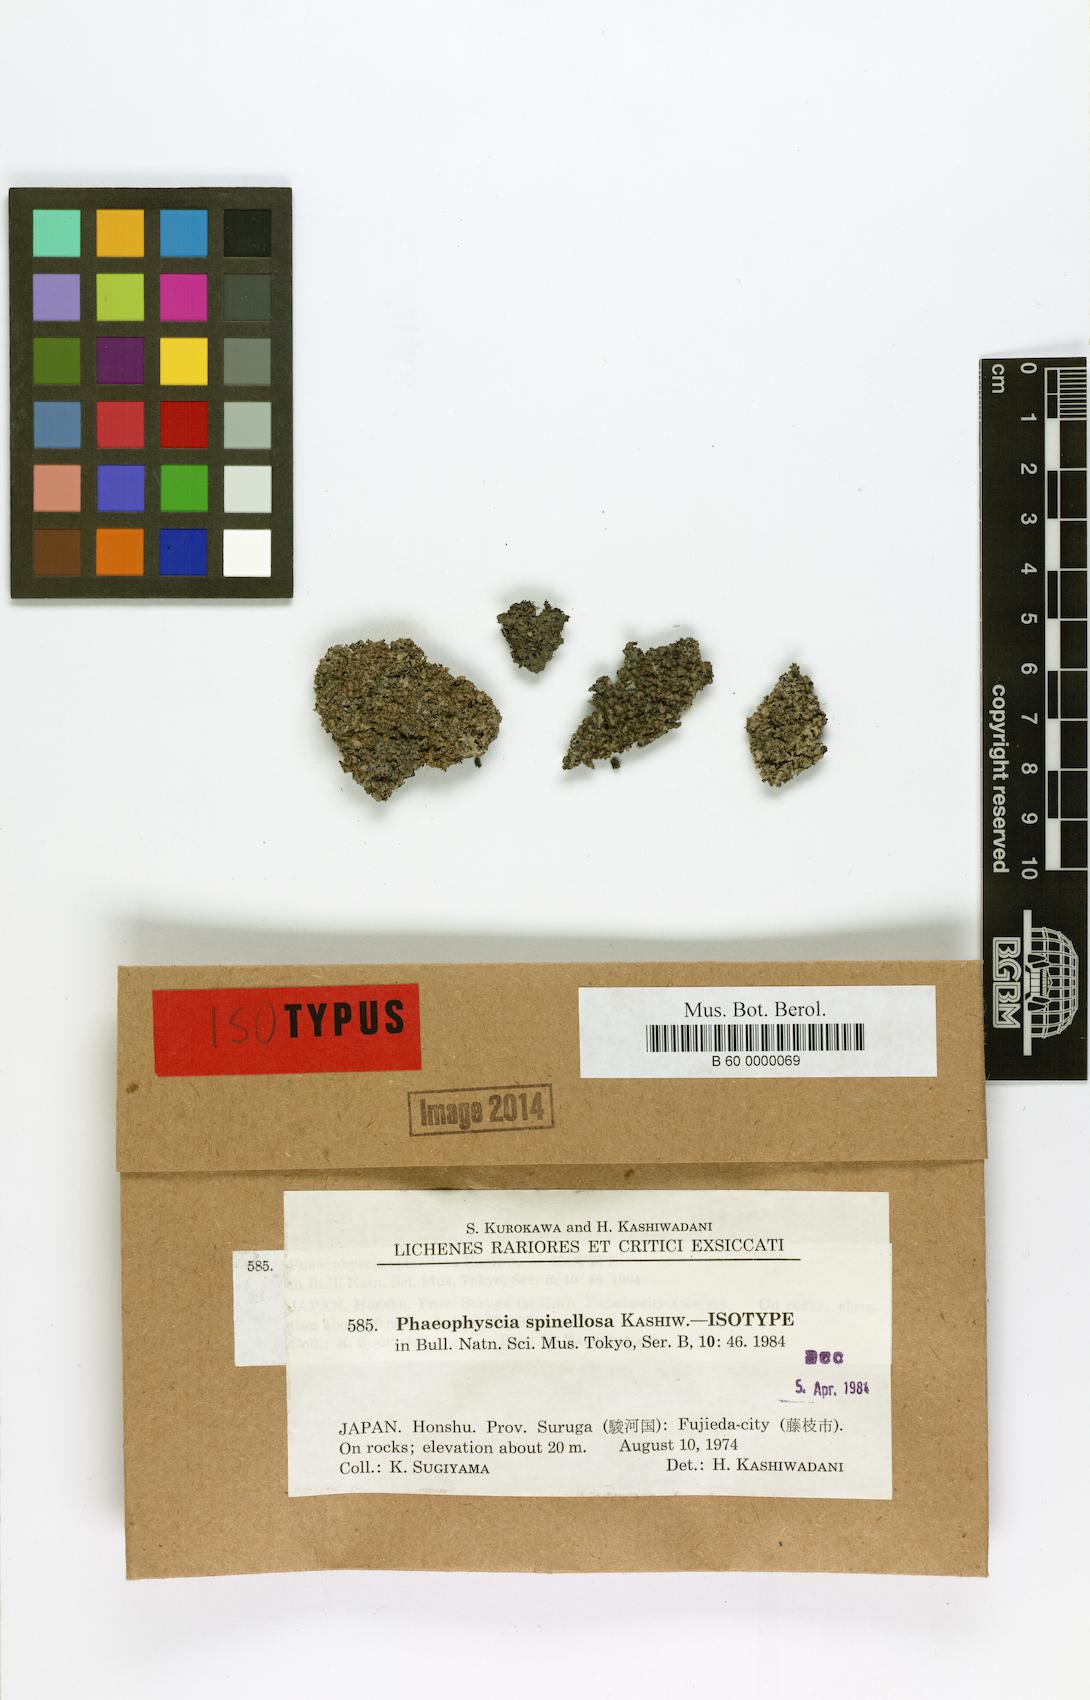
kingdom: Fungi
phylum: Ascomycota
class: Lecanoromycetes
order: Caliciales
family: Physciaceae
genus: Phaeophyscia
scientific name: Phaeophyscia spinellosa
